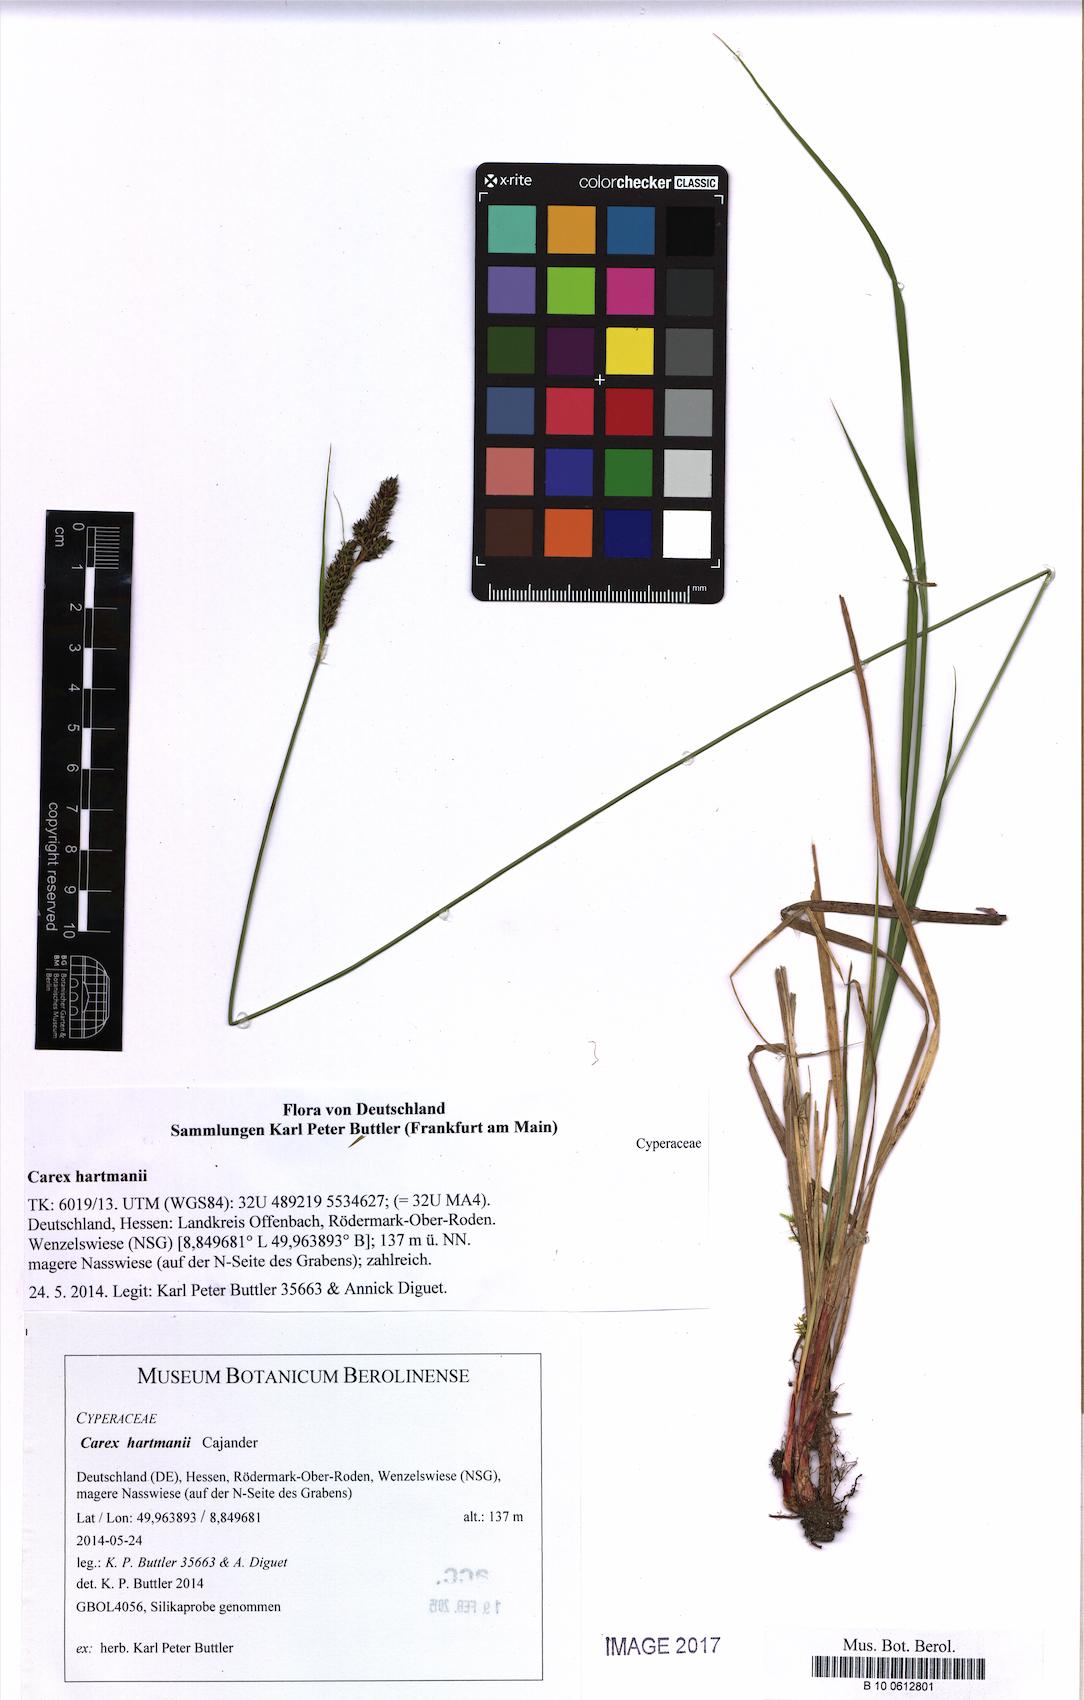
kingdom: Plantae
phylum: Tracheophyta
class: Liliopsida
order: Poales
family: Cyperaceae
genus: Carex
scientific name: Carex hartmaniorum
